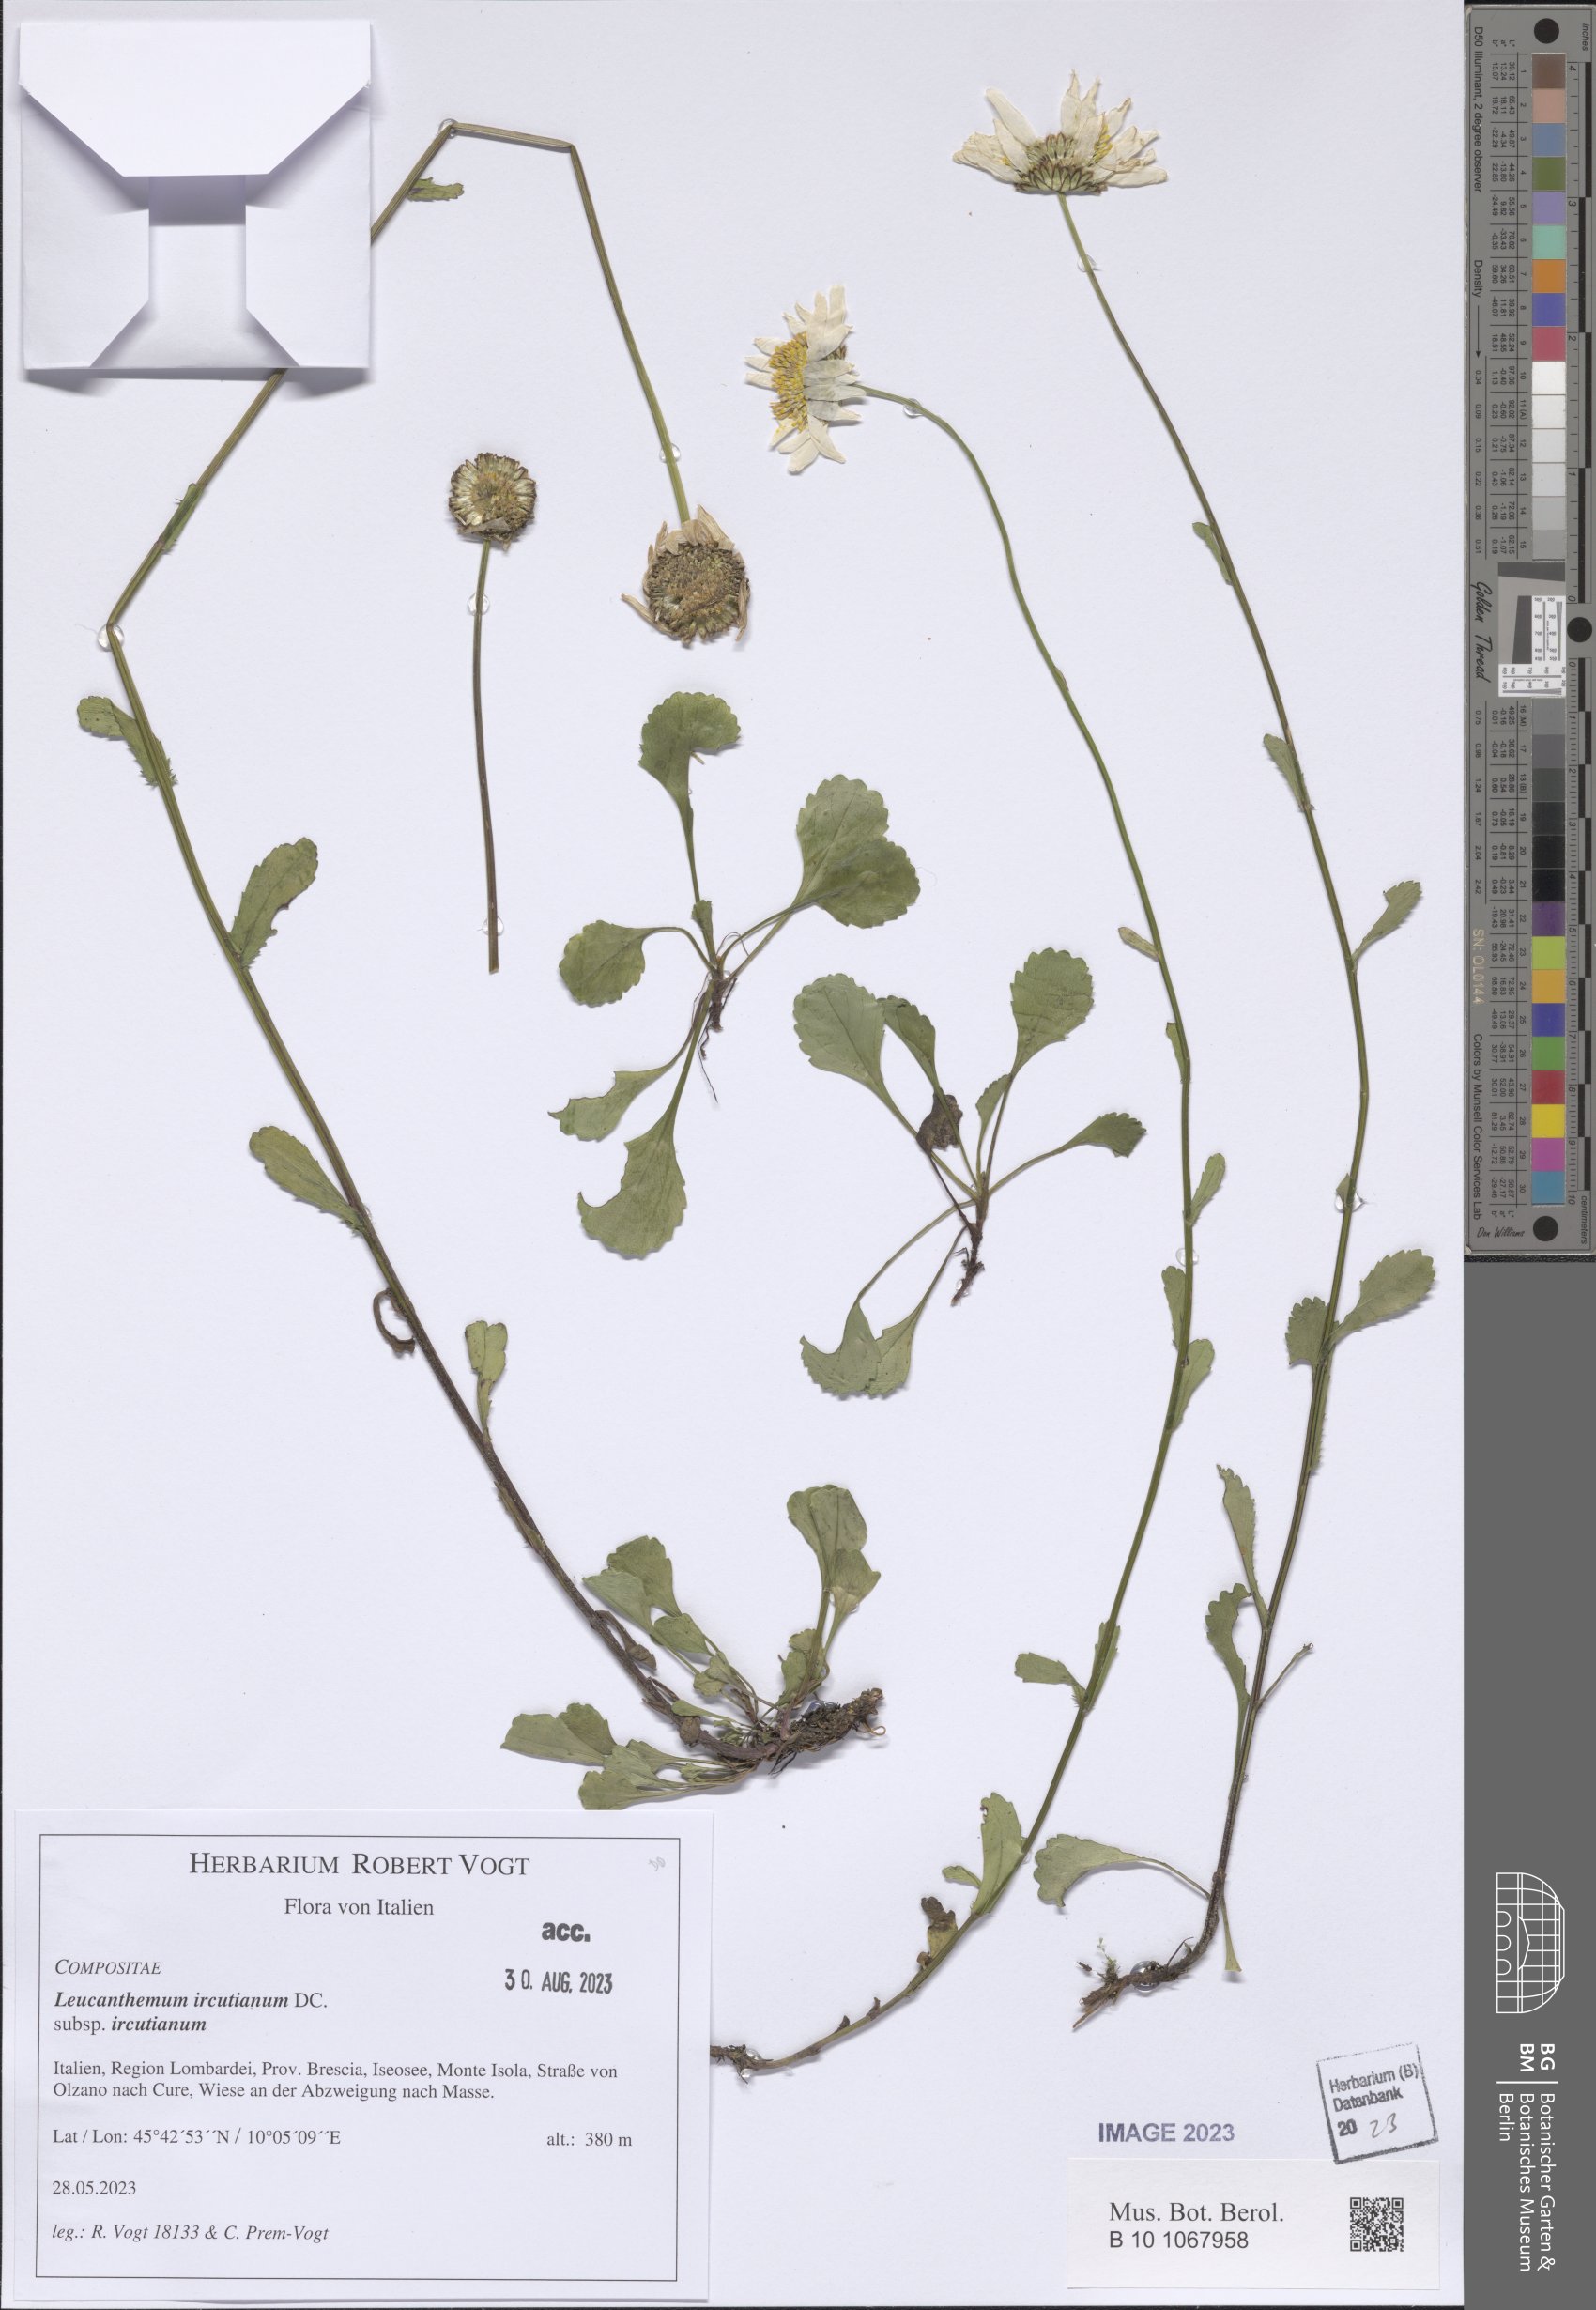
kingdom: Plantae
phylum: Tracheophyta
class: Magnoliopsida
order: Asterales
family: Asteraceae
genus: Leucanthemum
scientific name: Leucanthemum ircutianum
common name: Daisy
